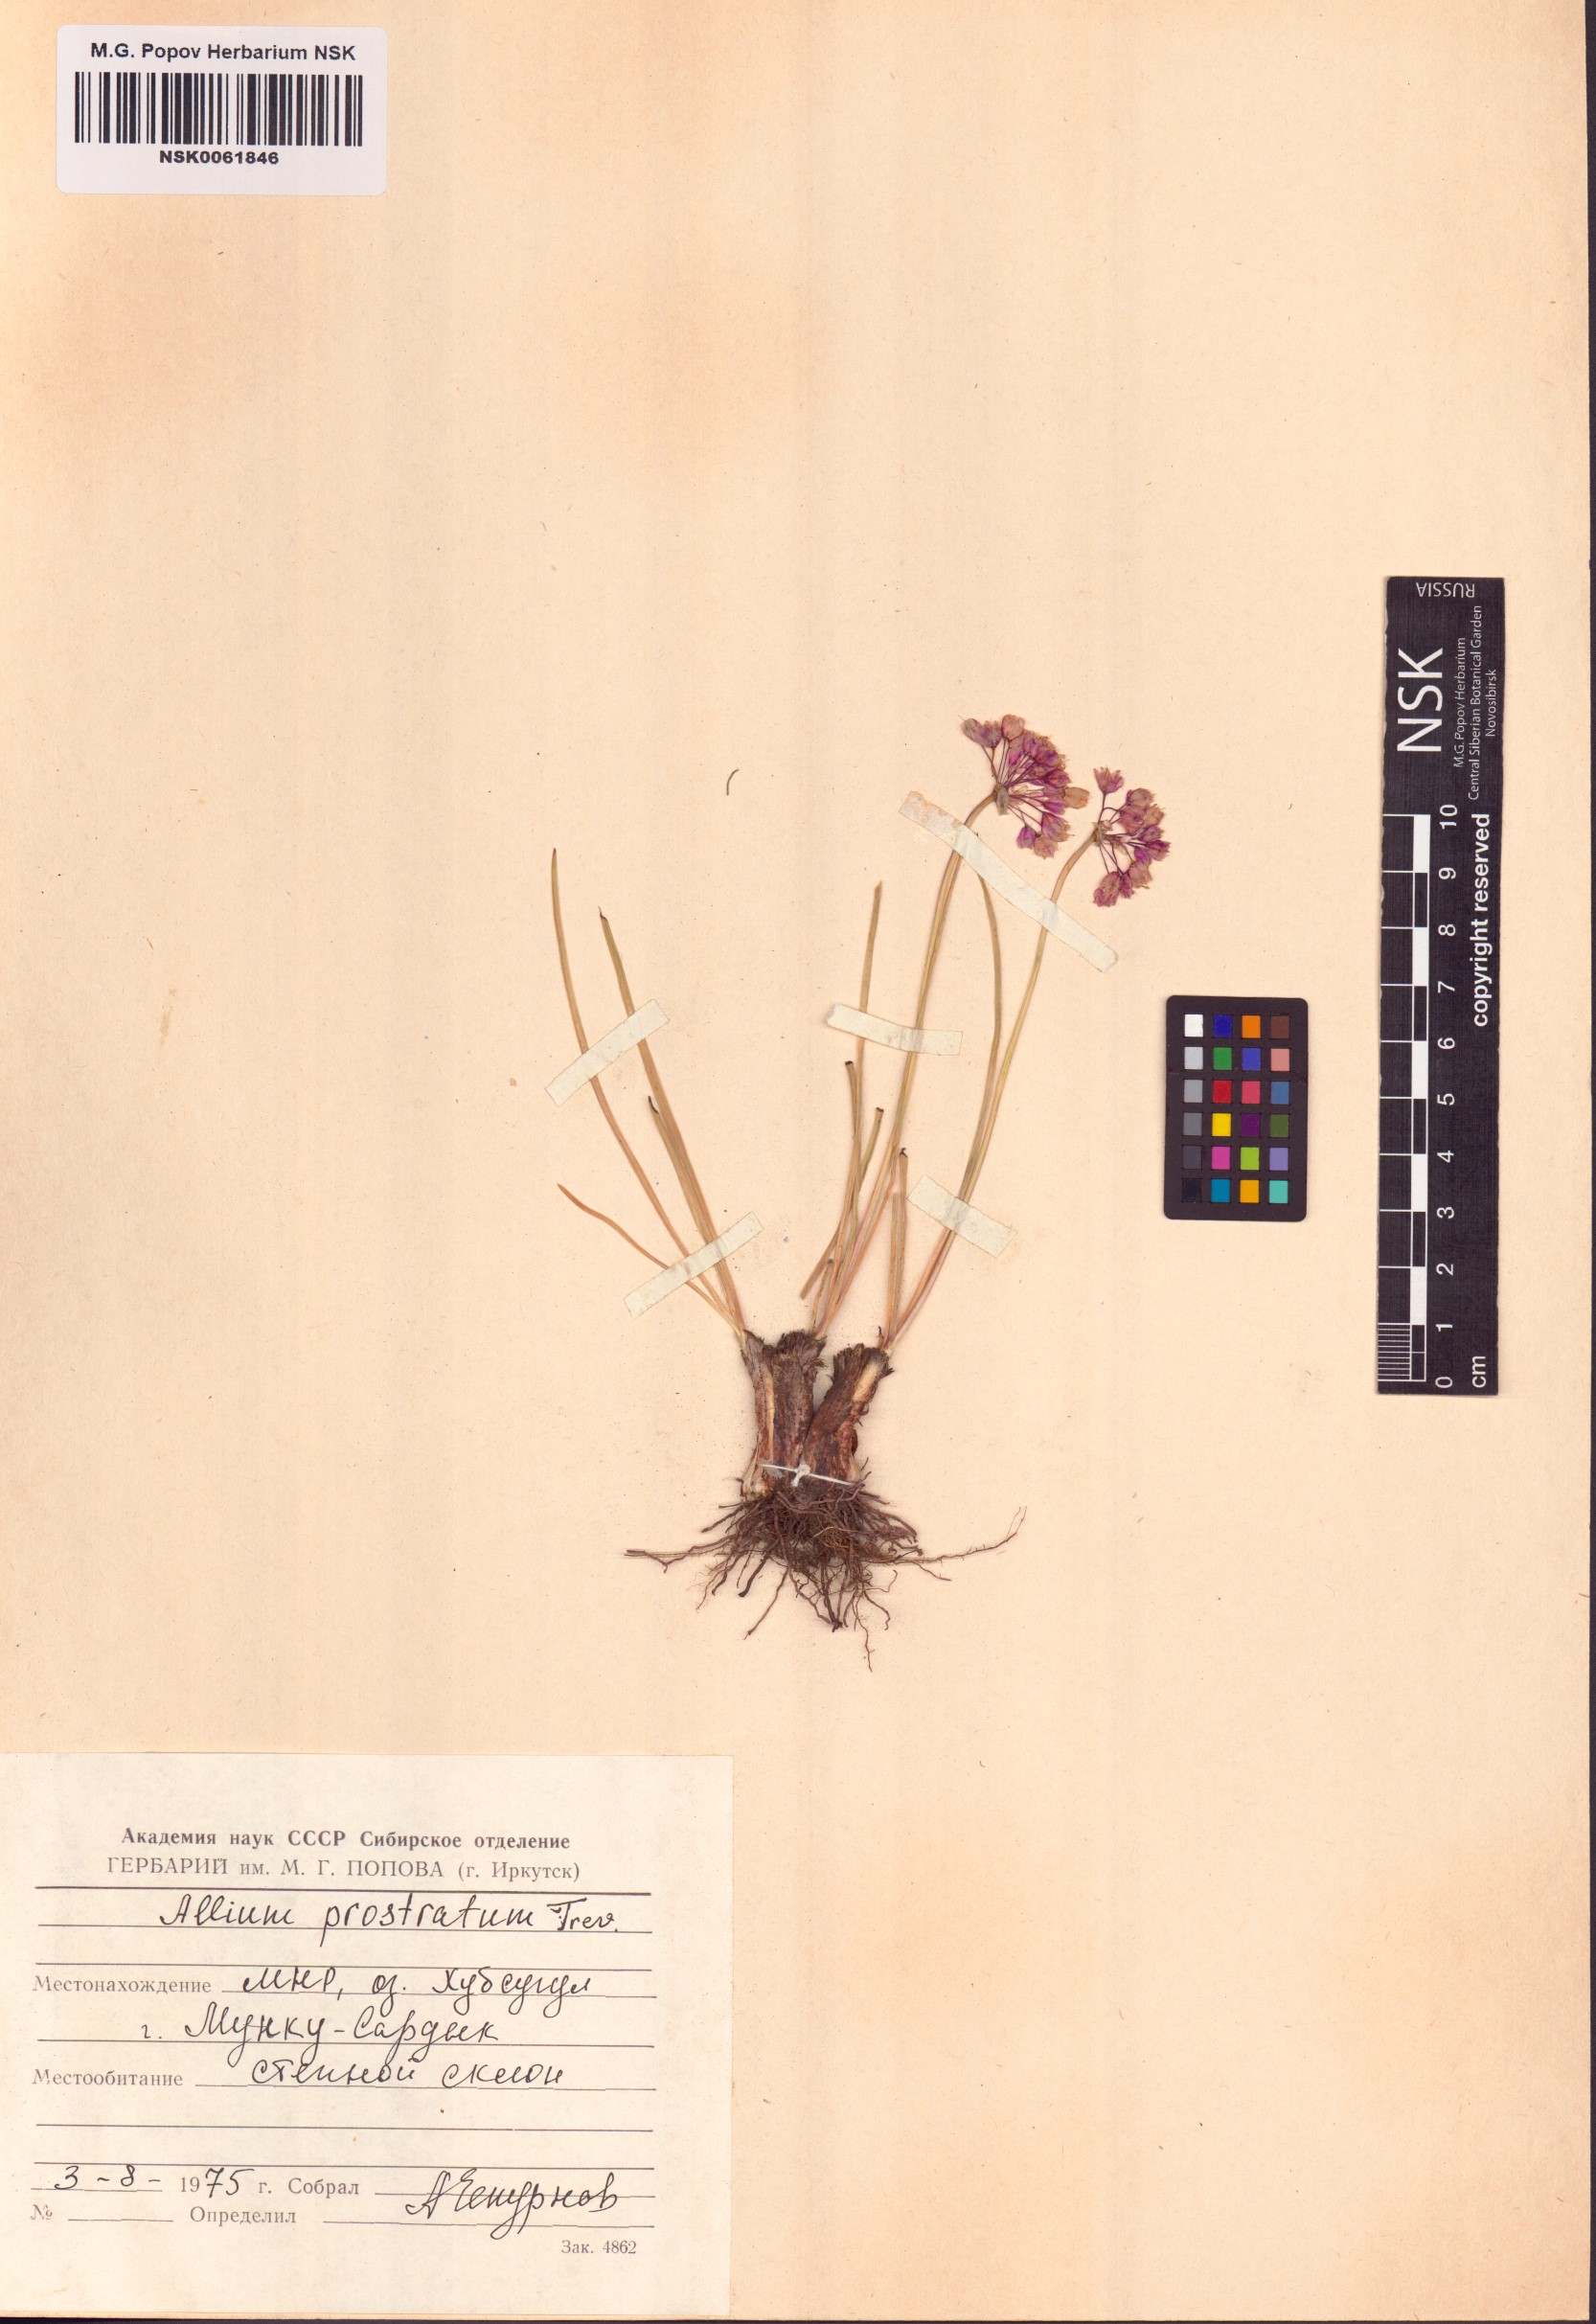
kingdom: Plantae
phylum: Tracheophyta
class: Liliopsida
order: Asparagales
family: Amaryllidaceae
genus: Allium
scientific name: Allium prostratum
